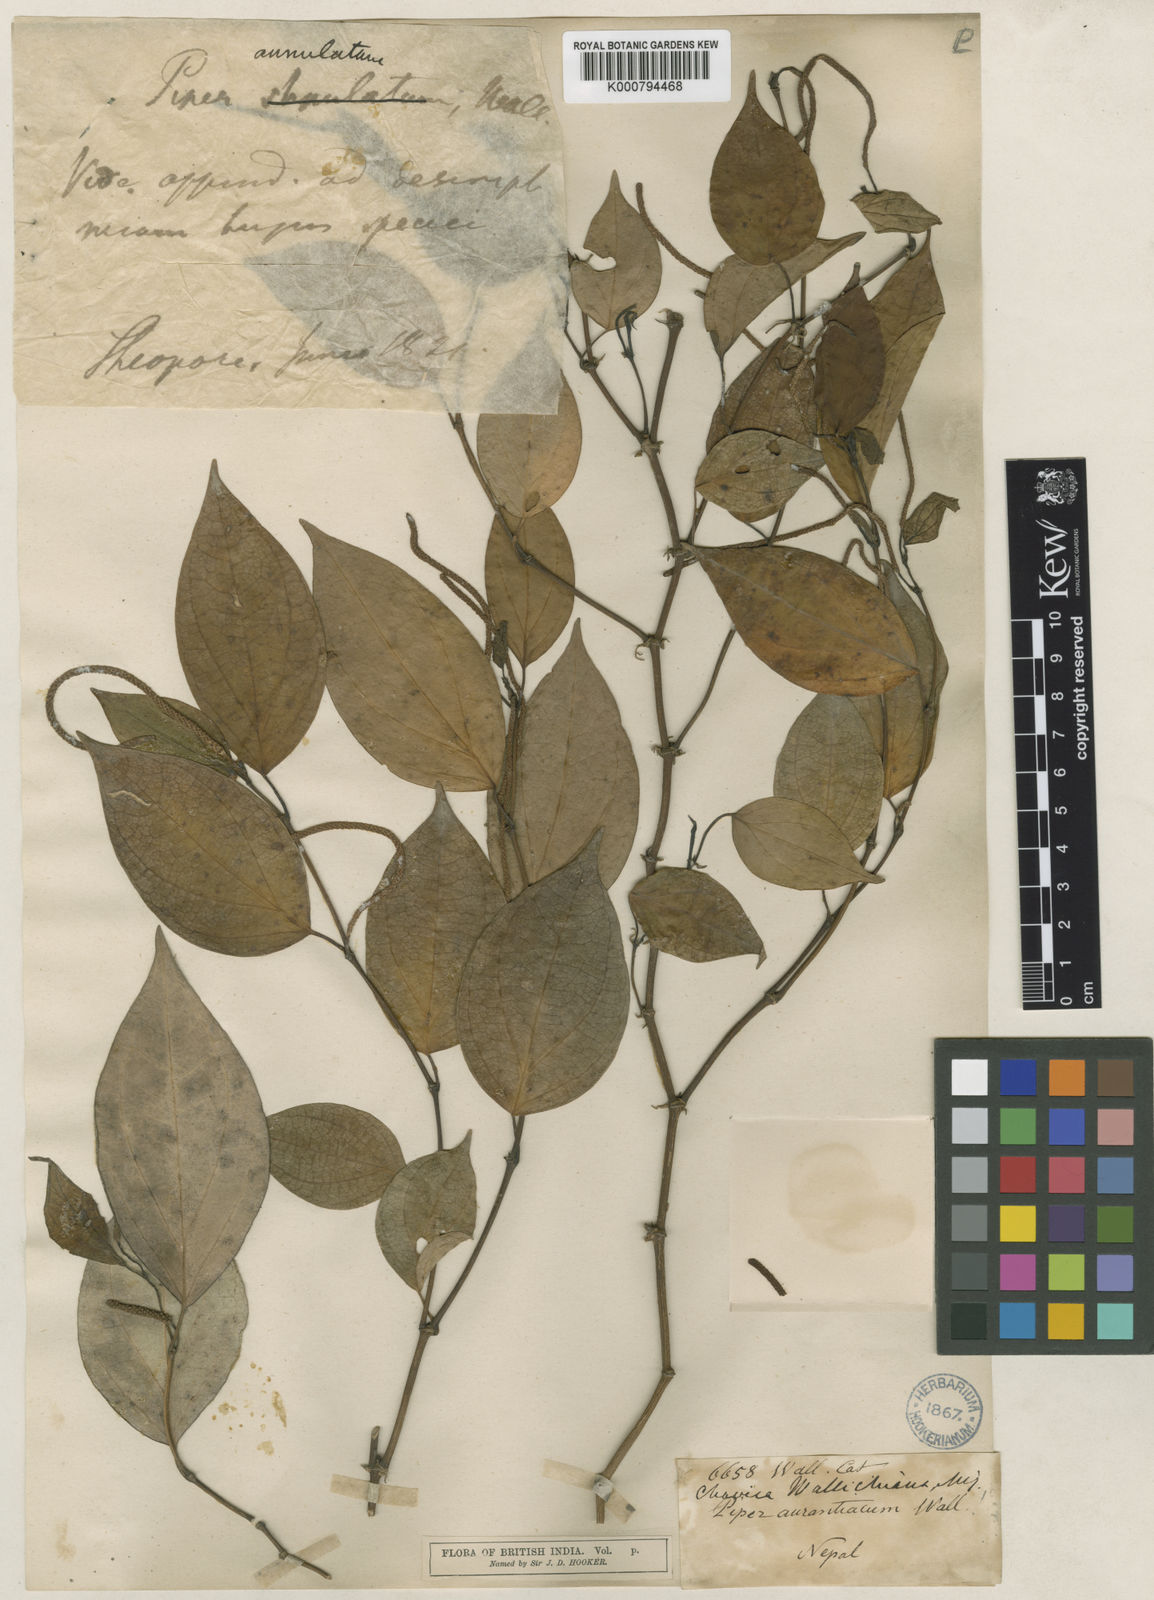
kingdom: Plantae
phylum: Tracheophyta
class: Magnoliopsida
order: Piperales
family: Piperaceae
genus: Piper
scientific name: Piper wallichii
